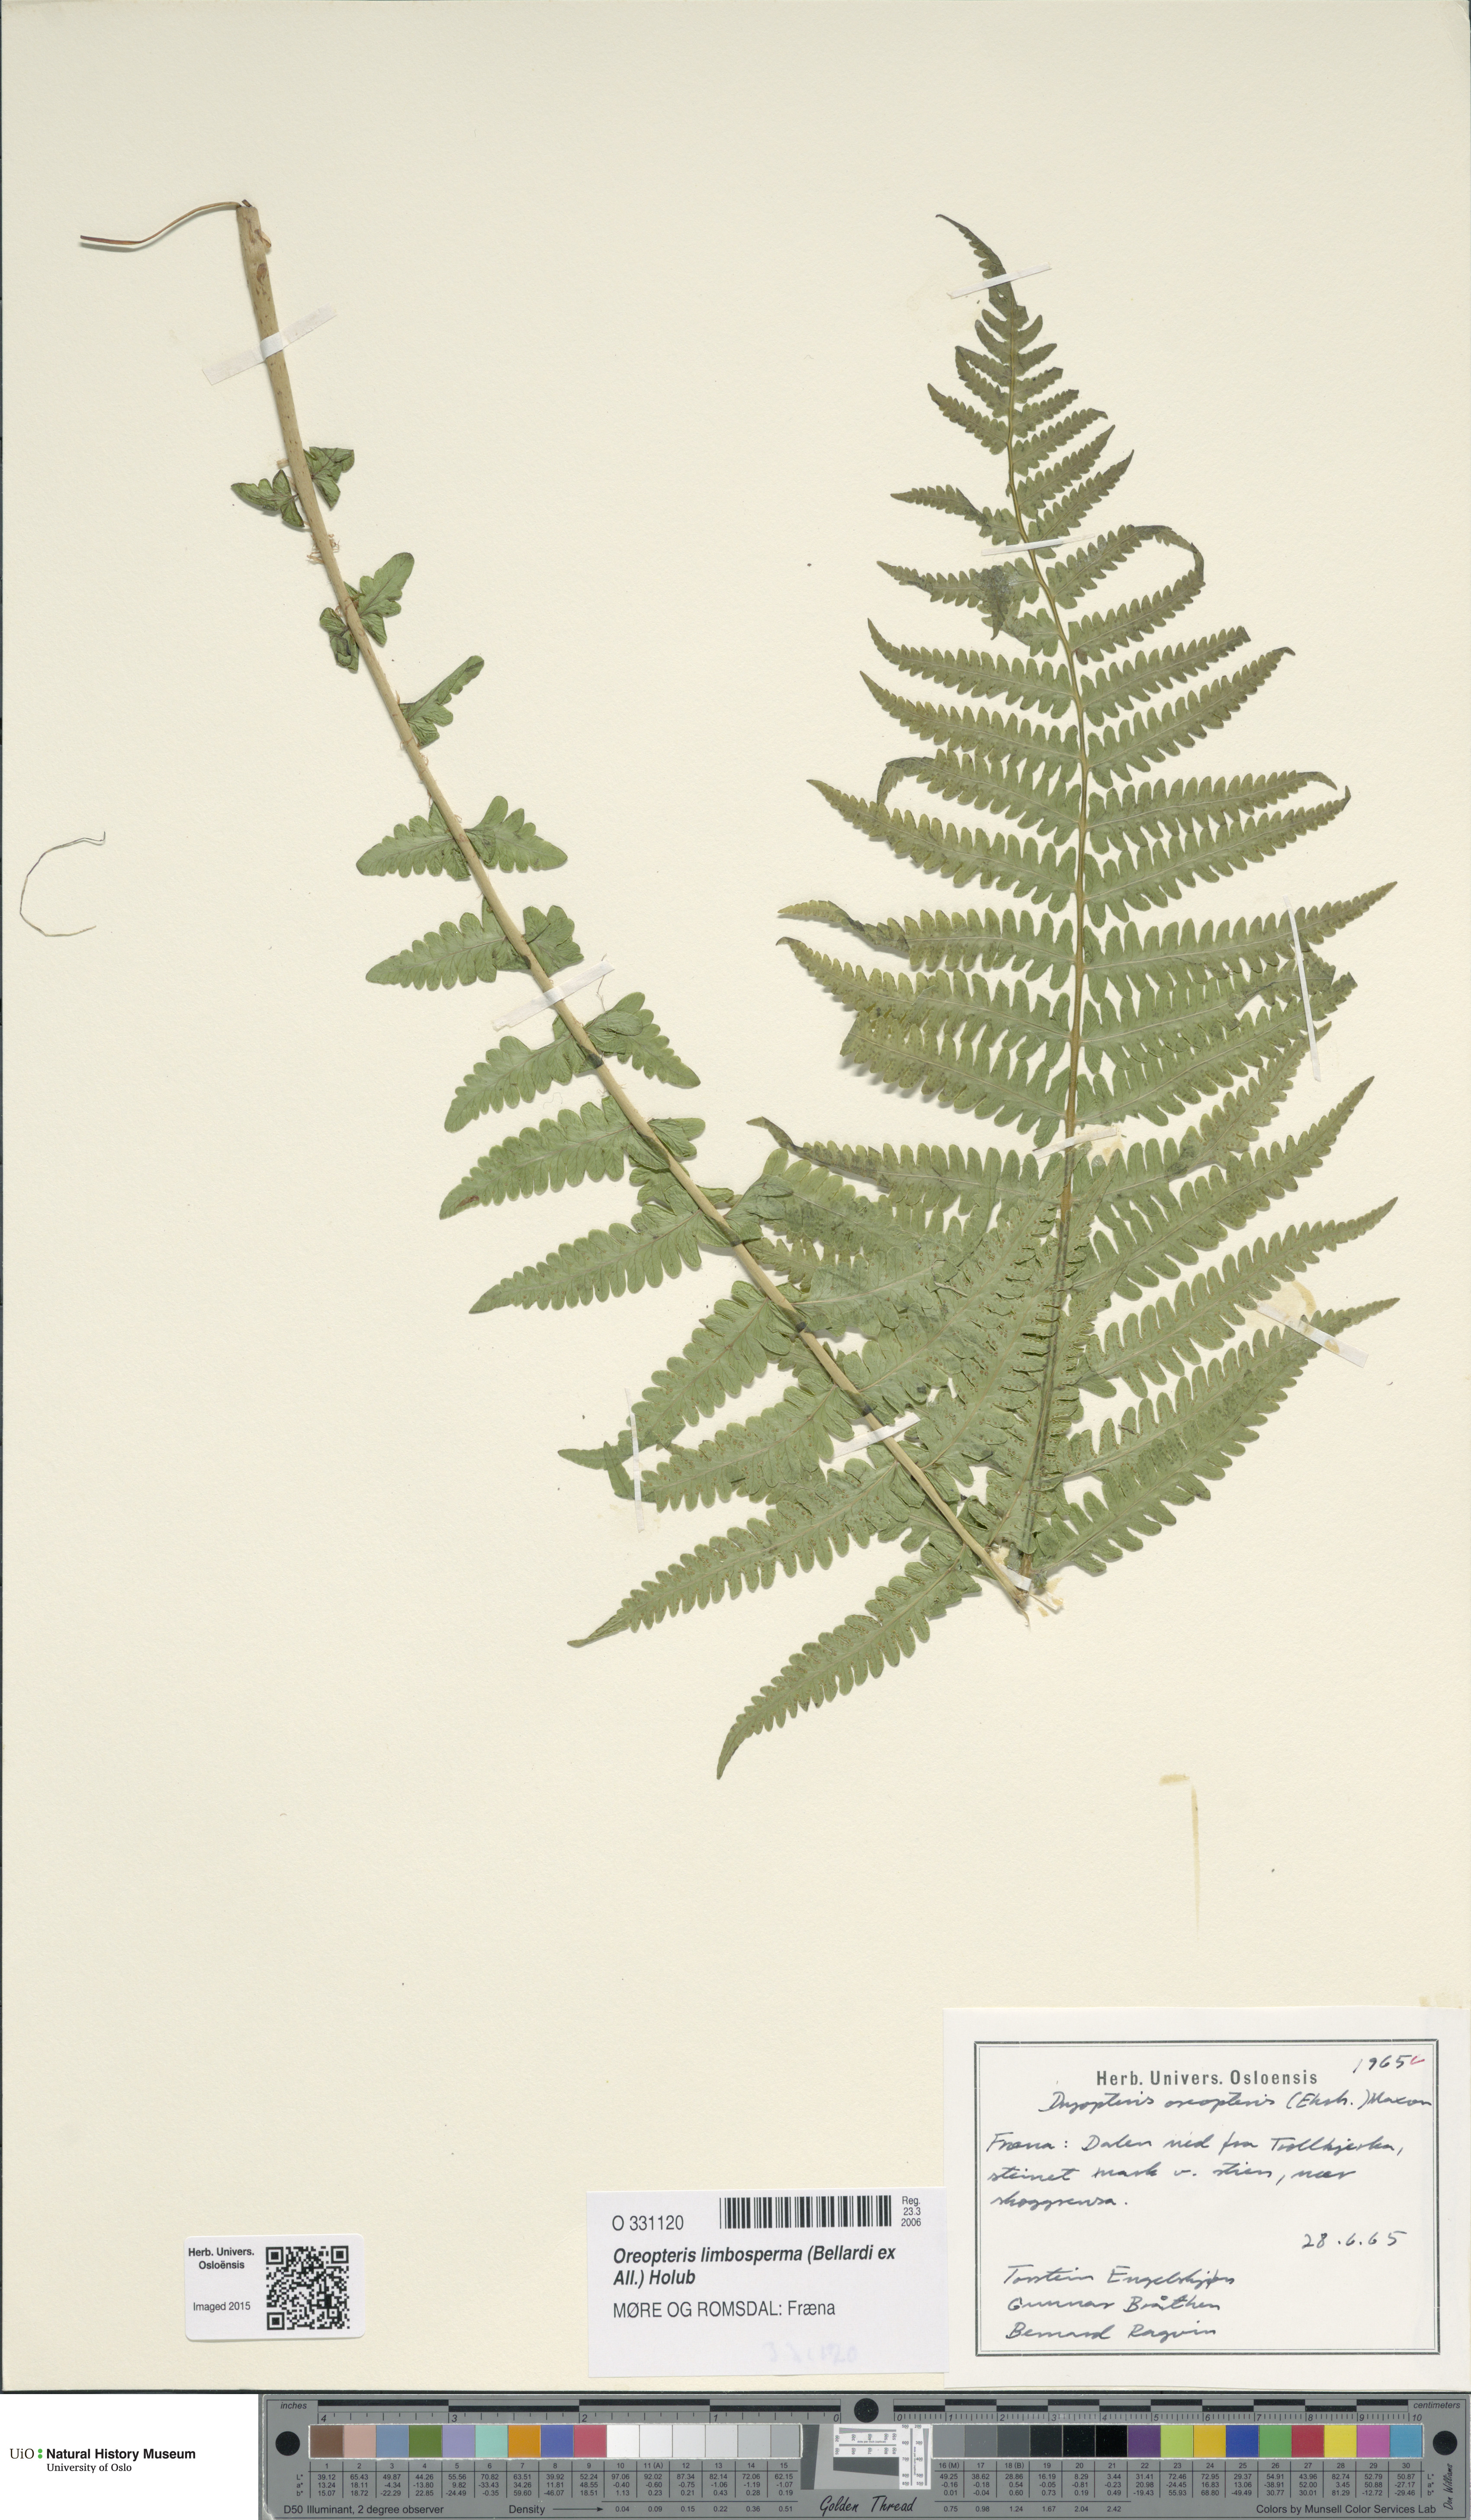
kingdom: Plantae
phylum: Tracheophyta
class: Polypodiopsida
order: Polypodiales
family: Thelypteridaceae
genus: Oreopteris
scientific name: Oreopteris limbosperma
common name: Lemon-scented fern
